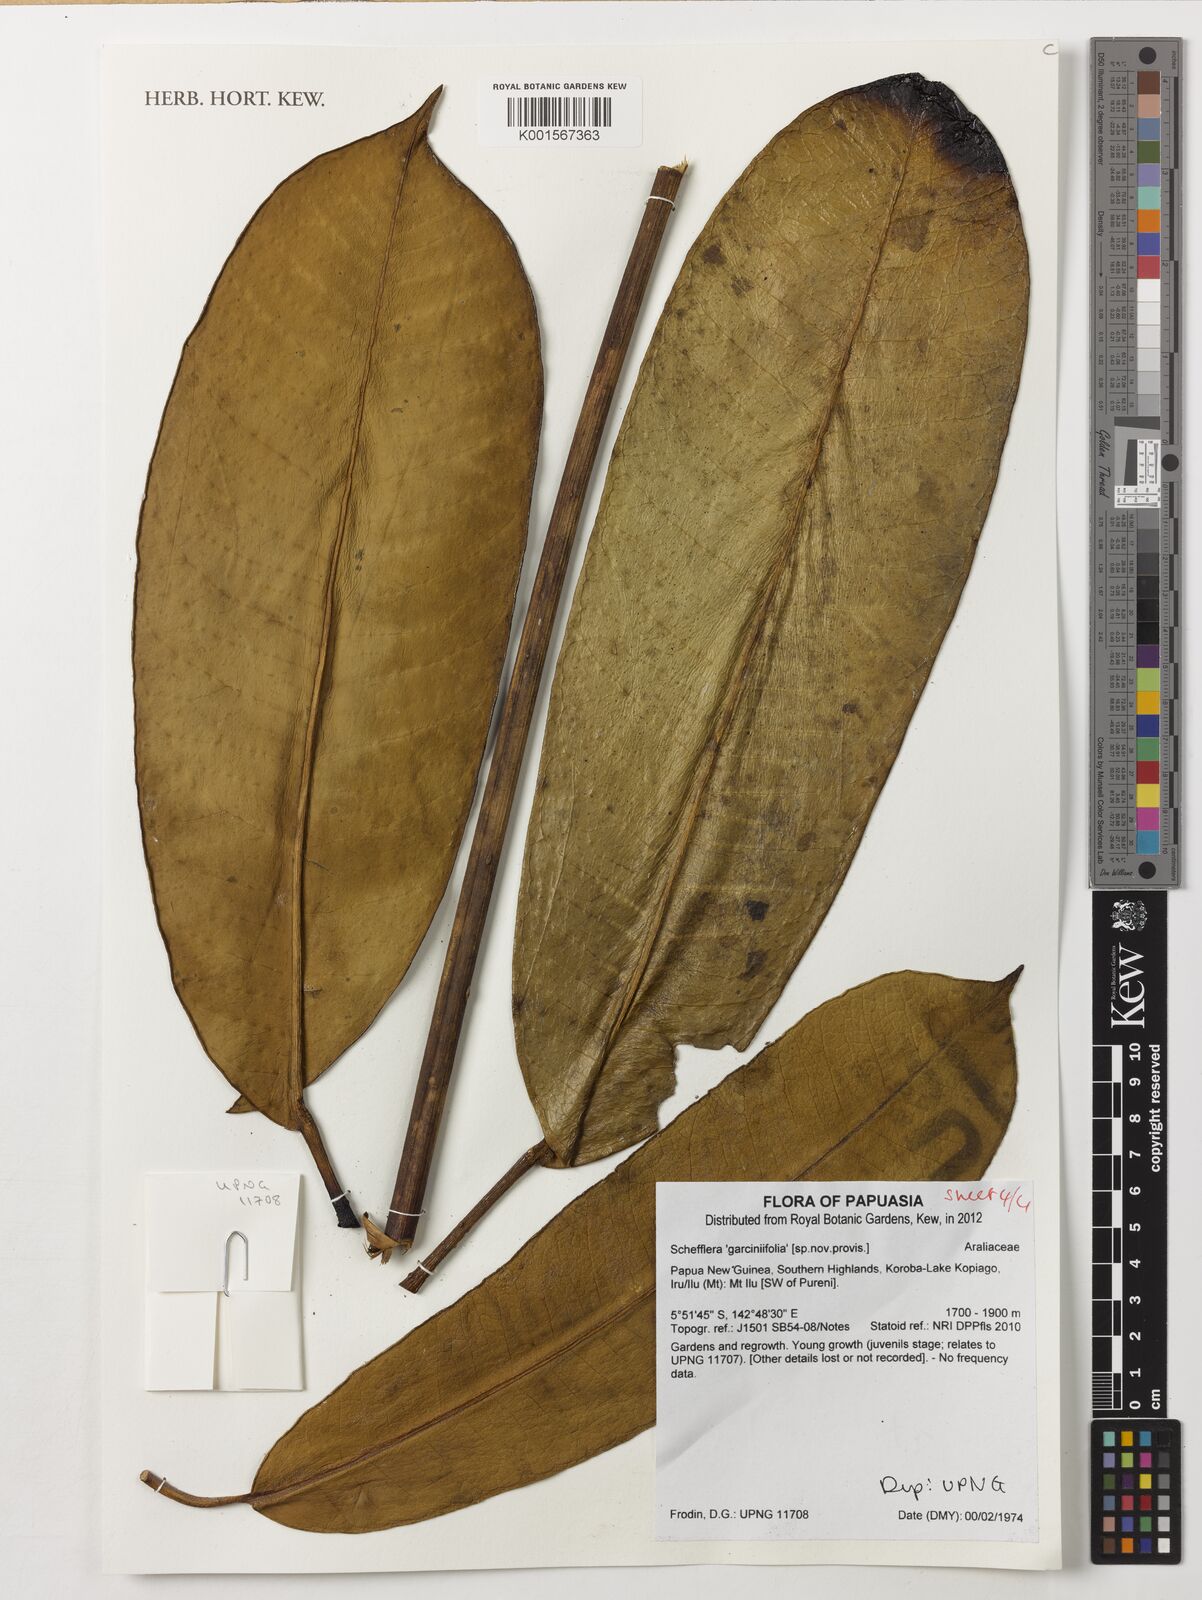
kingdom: Plantae
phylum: Tracheophyta
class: Magnoliopsida
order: Apiales
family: Araliaceae
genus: Schefflera
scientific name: Schefflera
